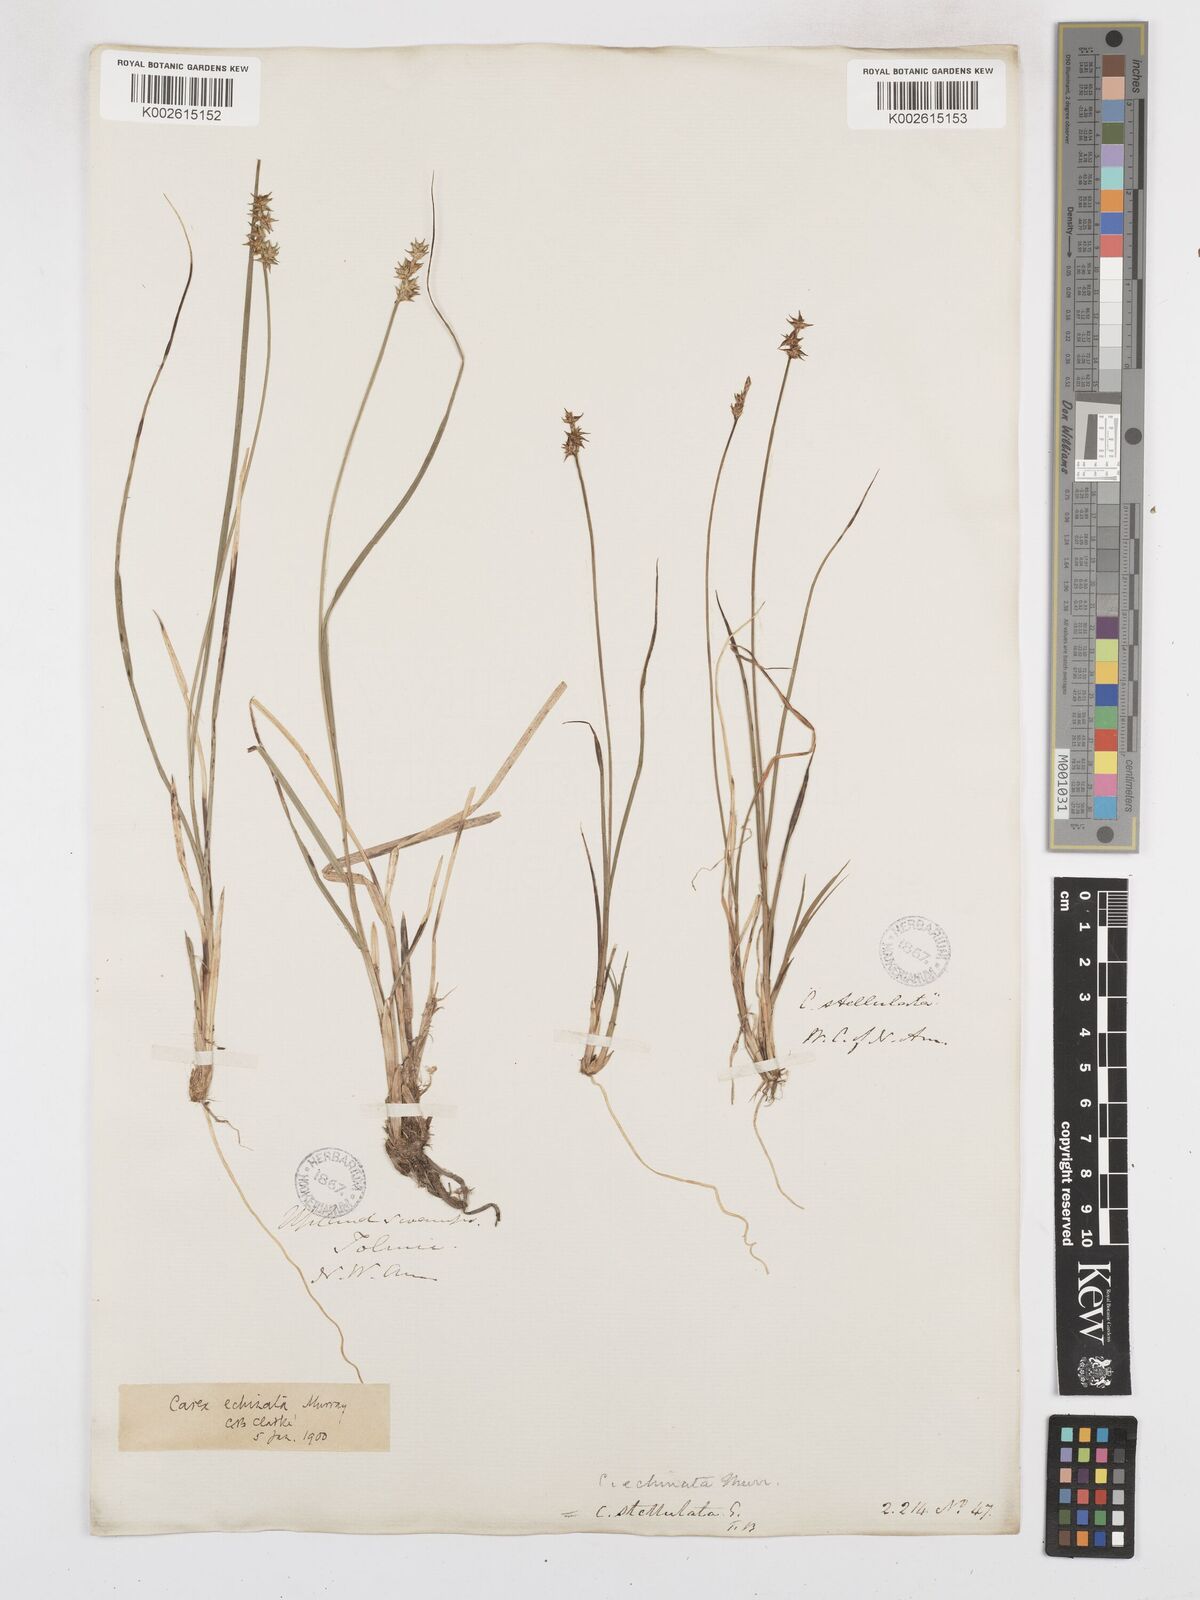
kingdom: Plantae
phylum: Tracheophyta
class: Liliopsida
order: Poales
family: Cyperaceae
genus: Carex
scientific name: Carex echinata
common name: Star sedge
